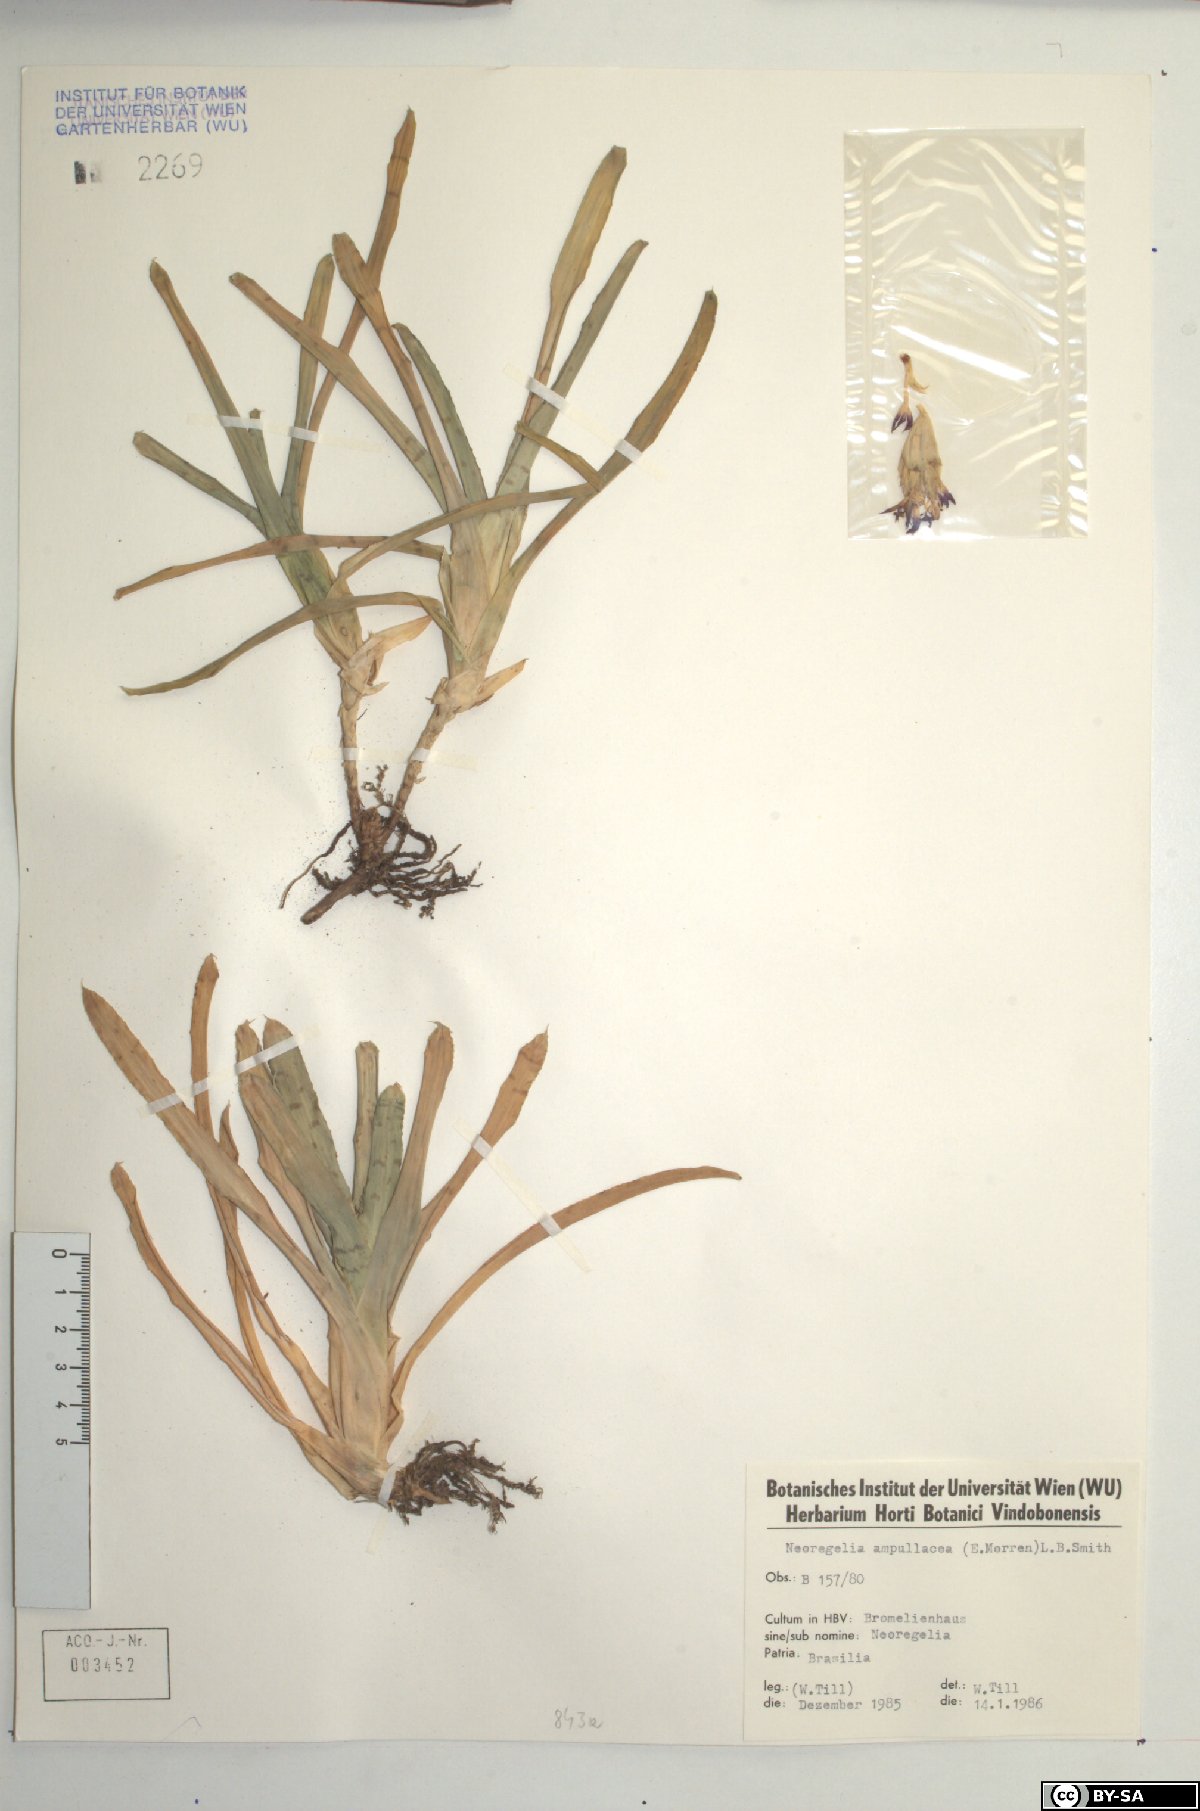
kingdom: Plantae
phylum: Tracheophyta
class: Liliopsida
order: Poales
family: Bromeliaceae
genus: Neoregelia
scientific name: Neoregelia ampullacea
